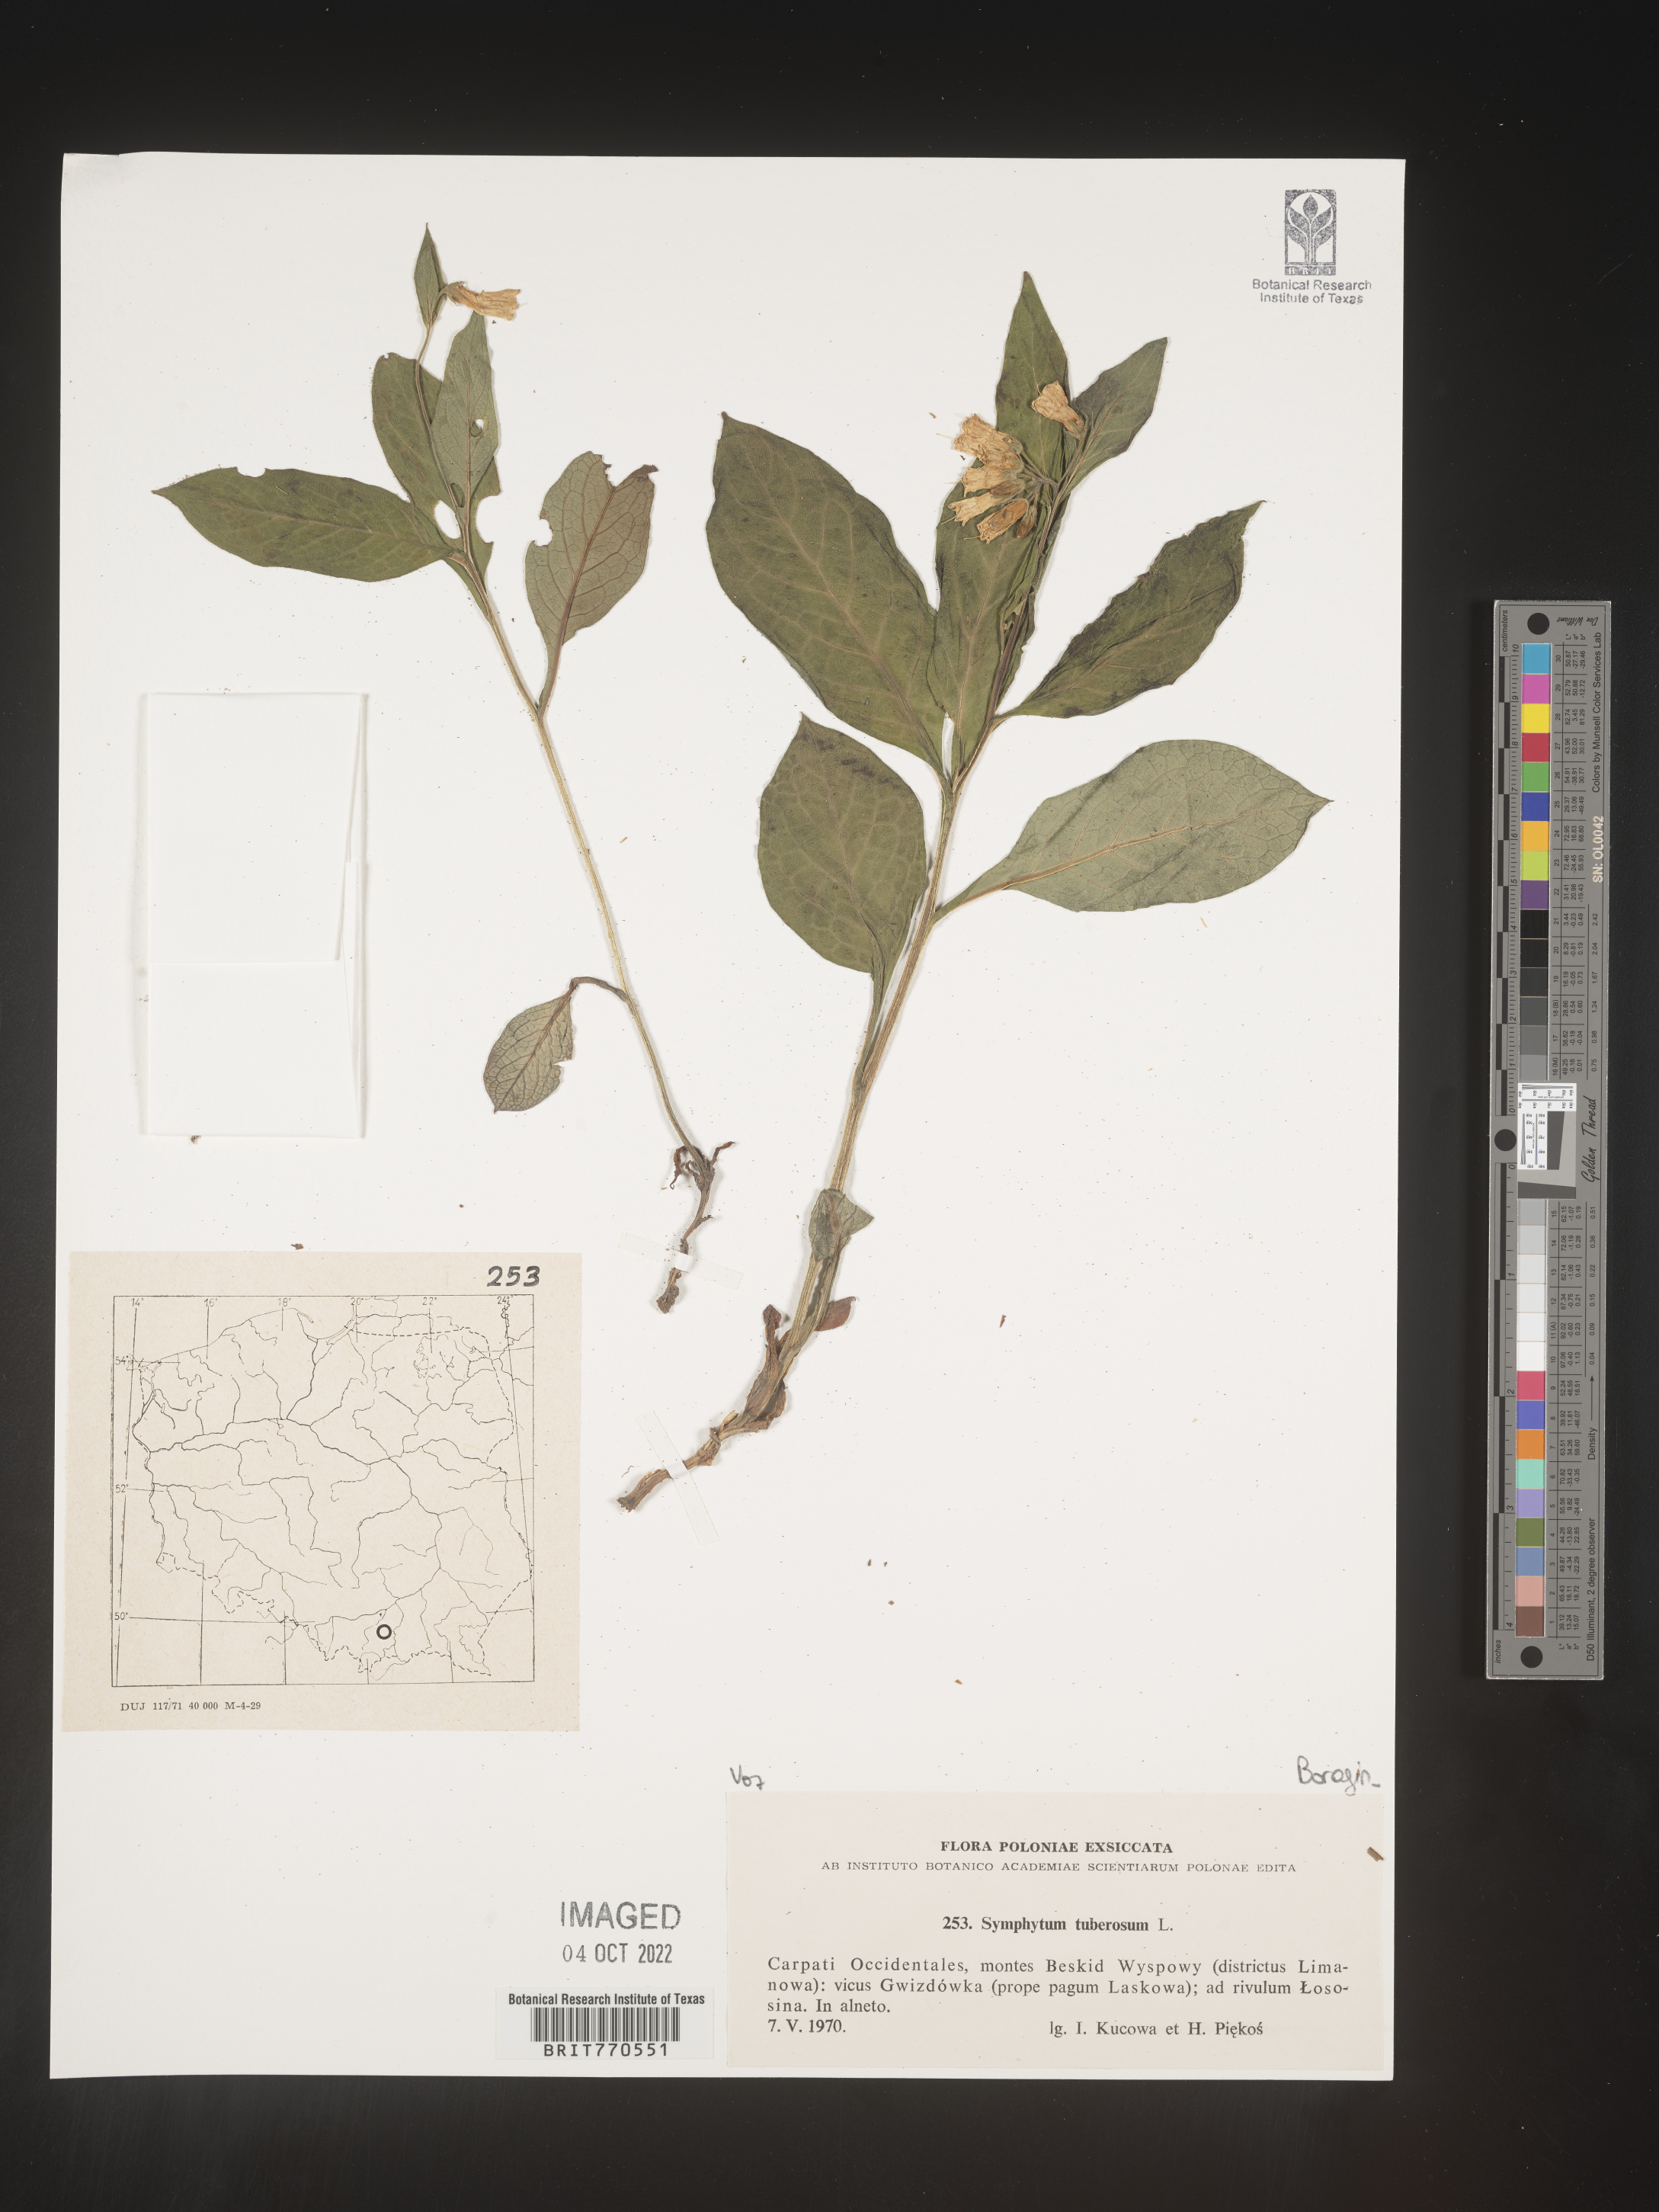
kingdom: Plantae
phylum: Tracheophyta
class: Magnoliopsida
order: Boraginales
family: Boraginaceae
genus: Symphytum
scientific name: Symphytum
